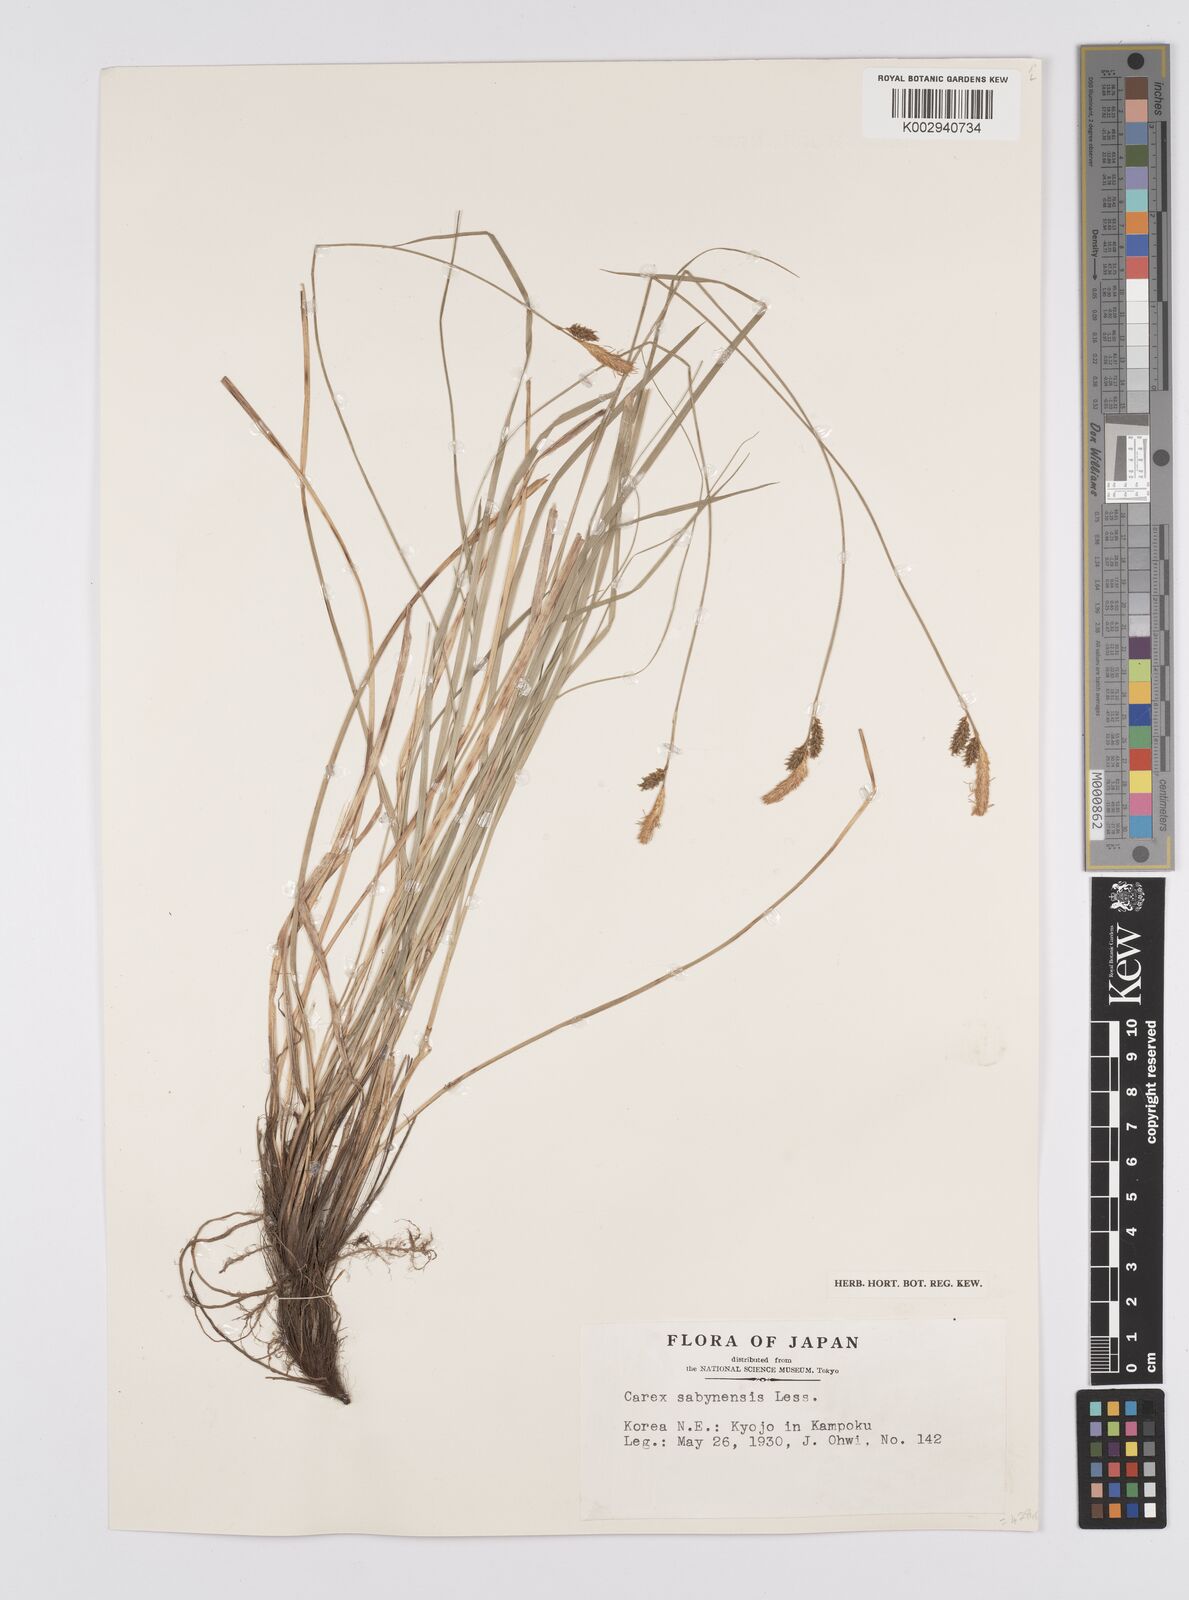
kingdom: Plantae
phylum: Tracheophyta
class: Liliopsida
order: Poales
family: Cyperaceae
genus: Carex
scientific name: Carex umbrosa
